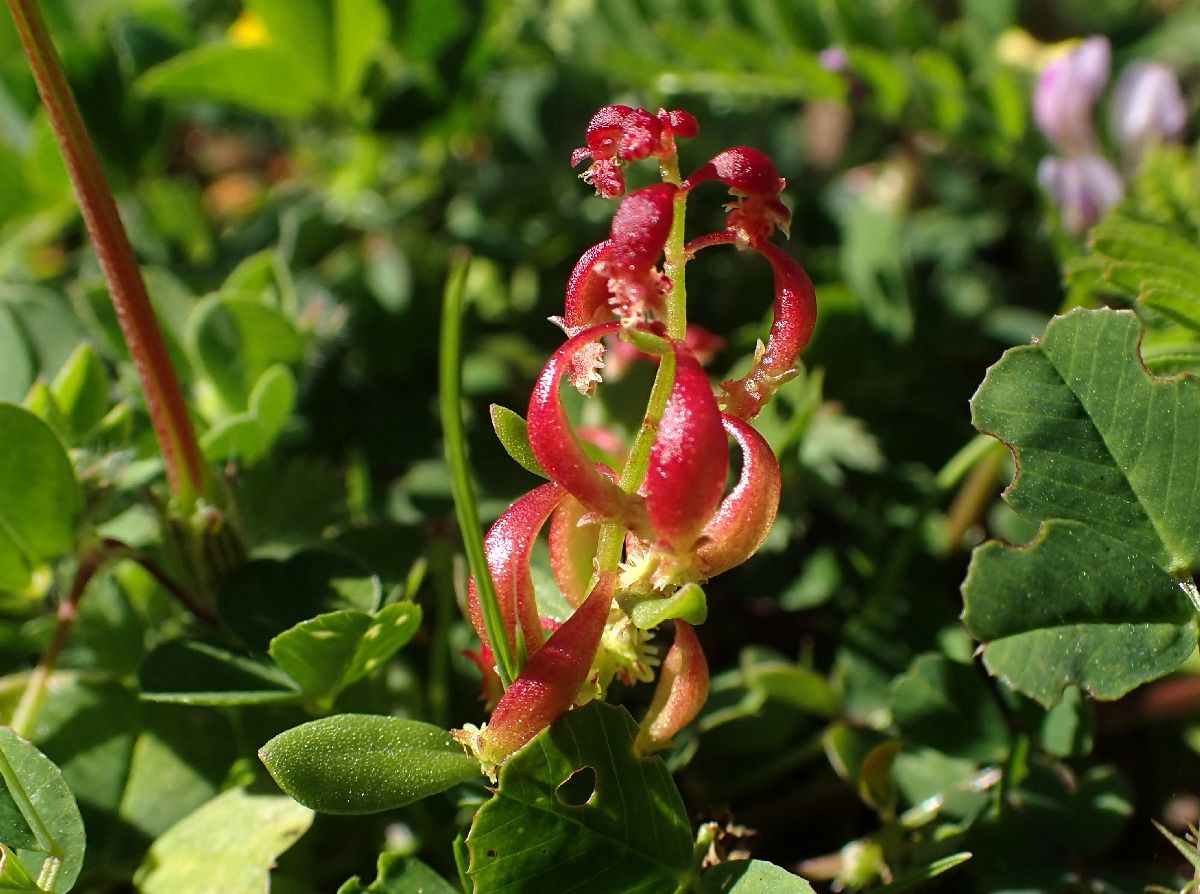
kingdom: Plantae
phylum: Tracheophyta
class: Magnoliopsida
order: Caryophyllales
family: Polygonaceae
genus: Rumex
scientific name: Rumex bucephalophorus
